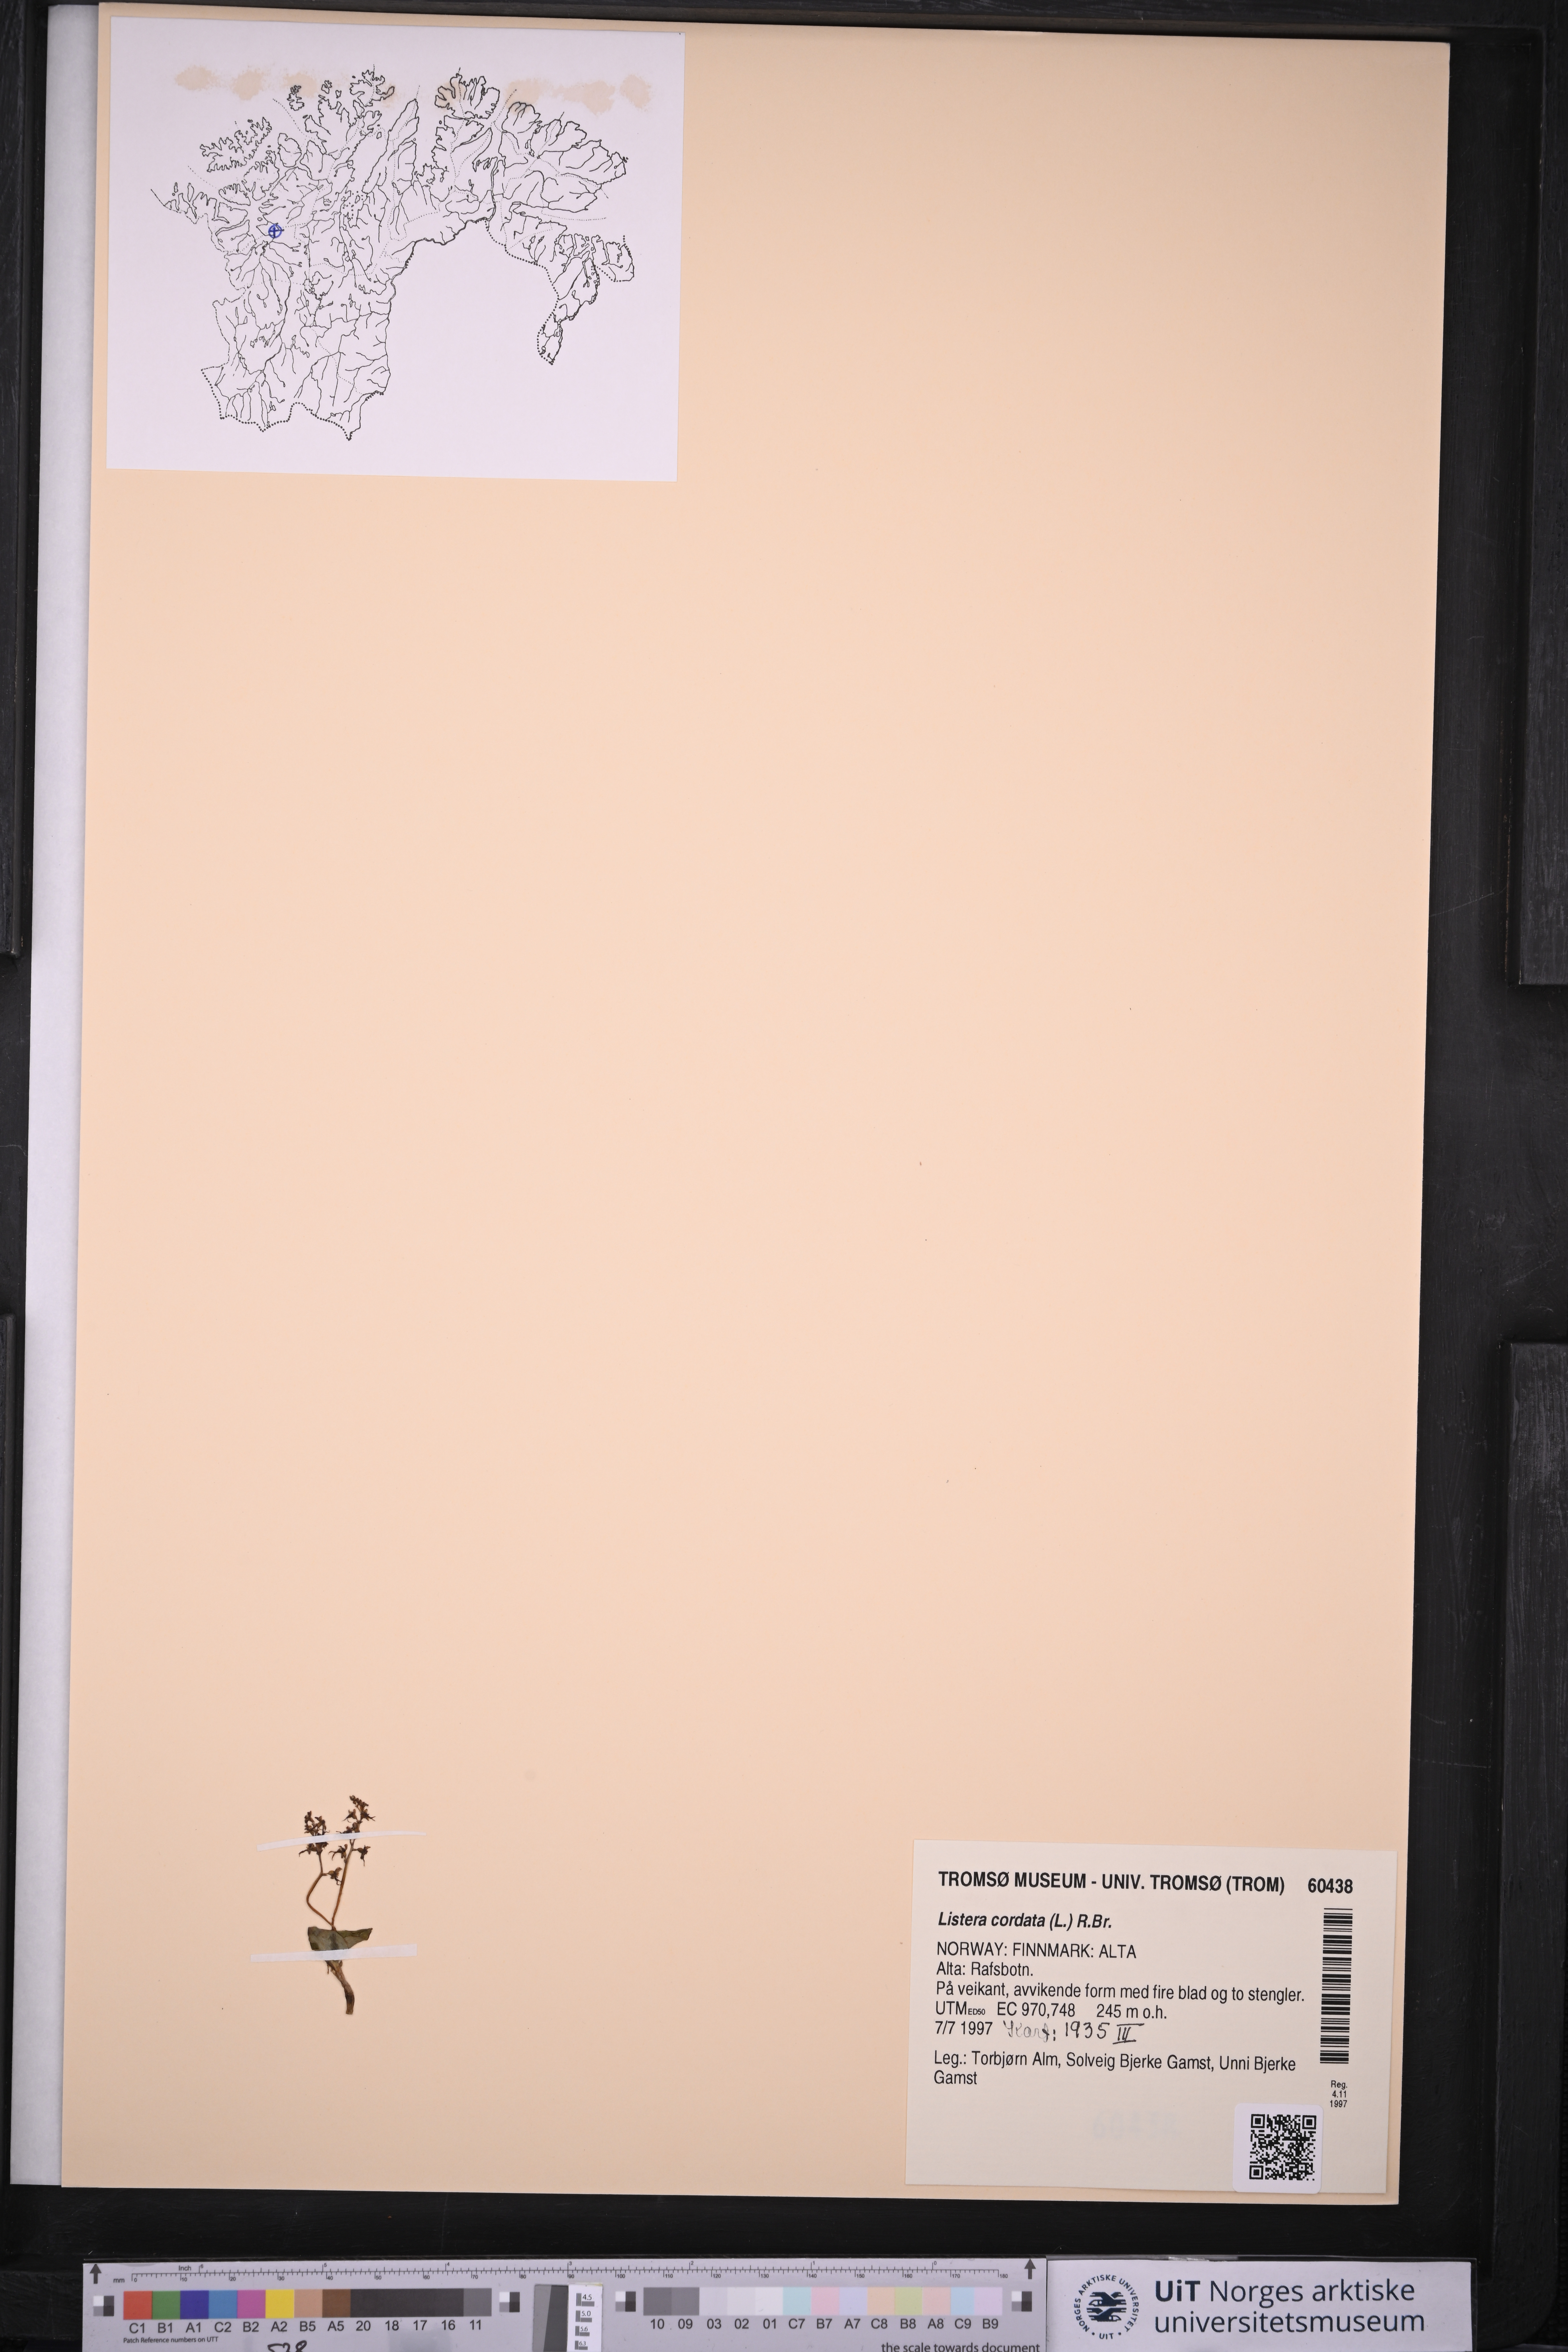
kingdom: Plantae
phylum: Tracheophyta
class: Liliopsida
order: Asparagales
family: Orchidaceae
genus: Neottia
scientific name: Neottia cordata
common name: Lesser twayblade
